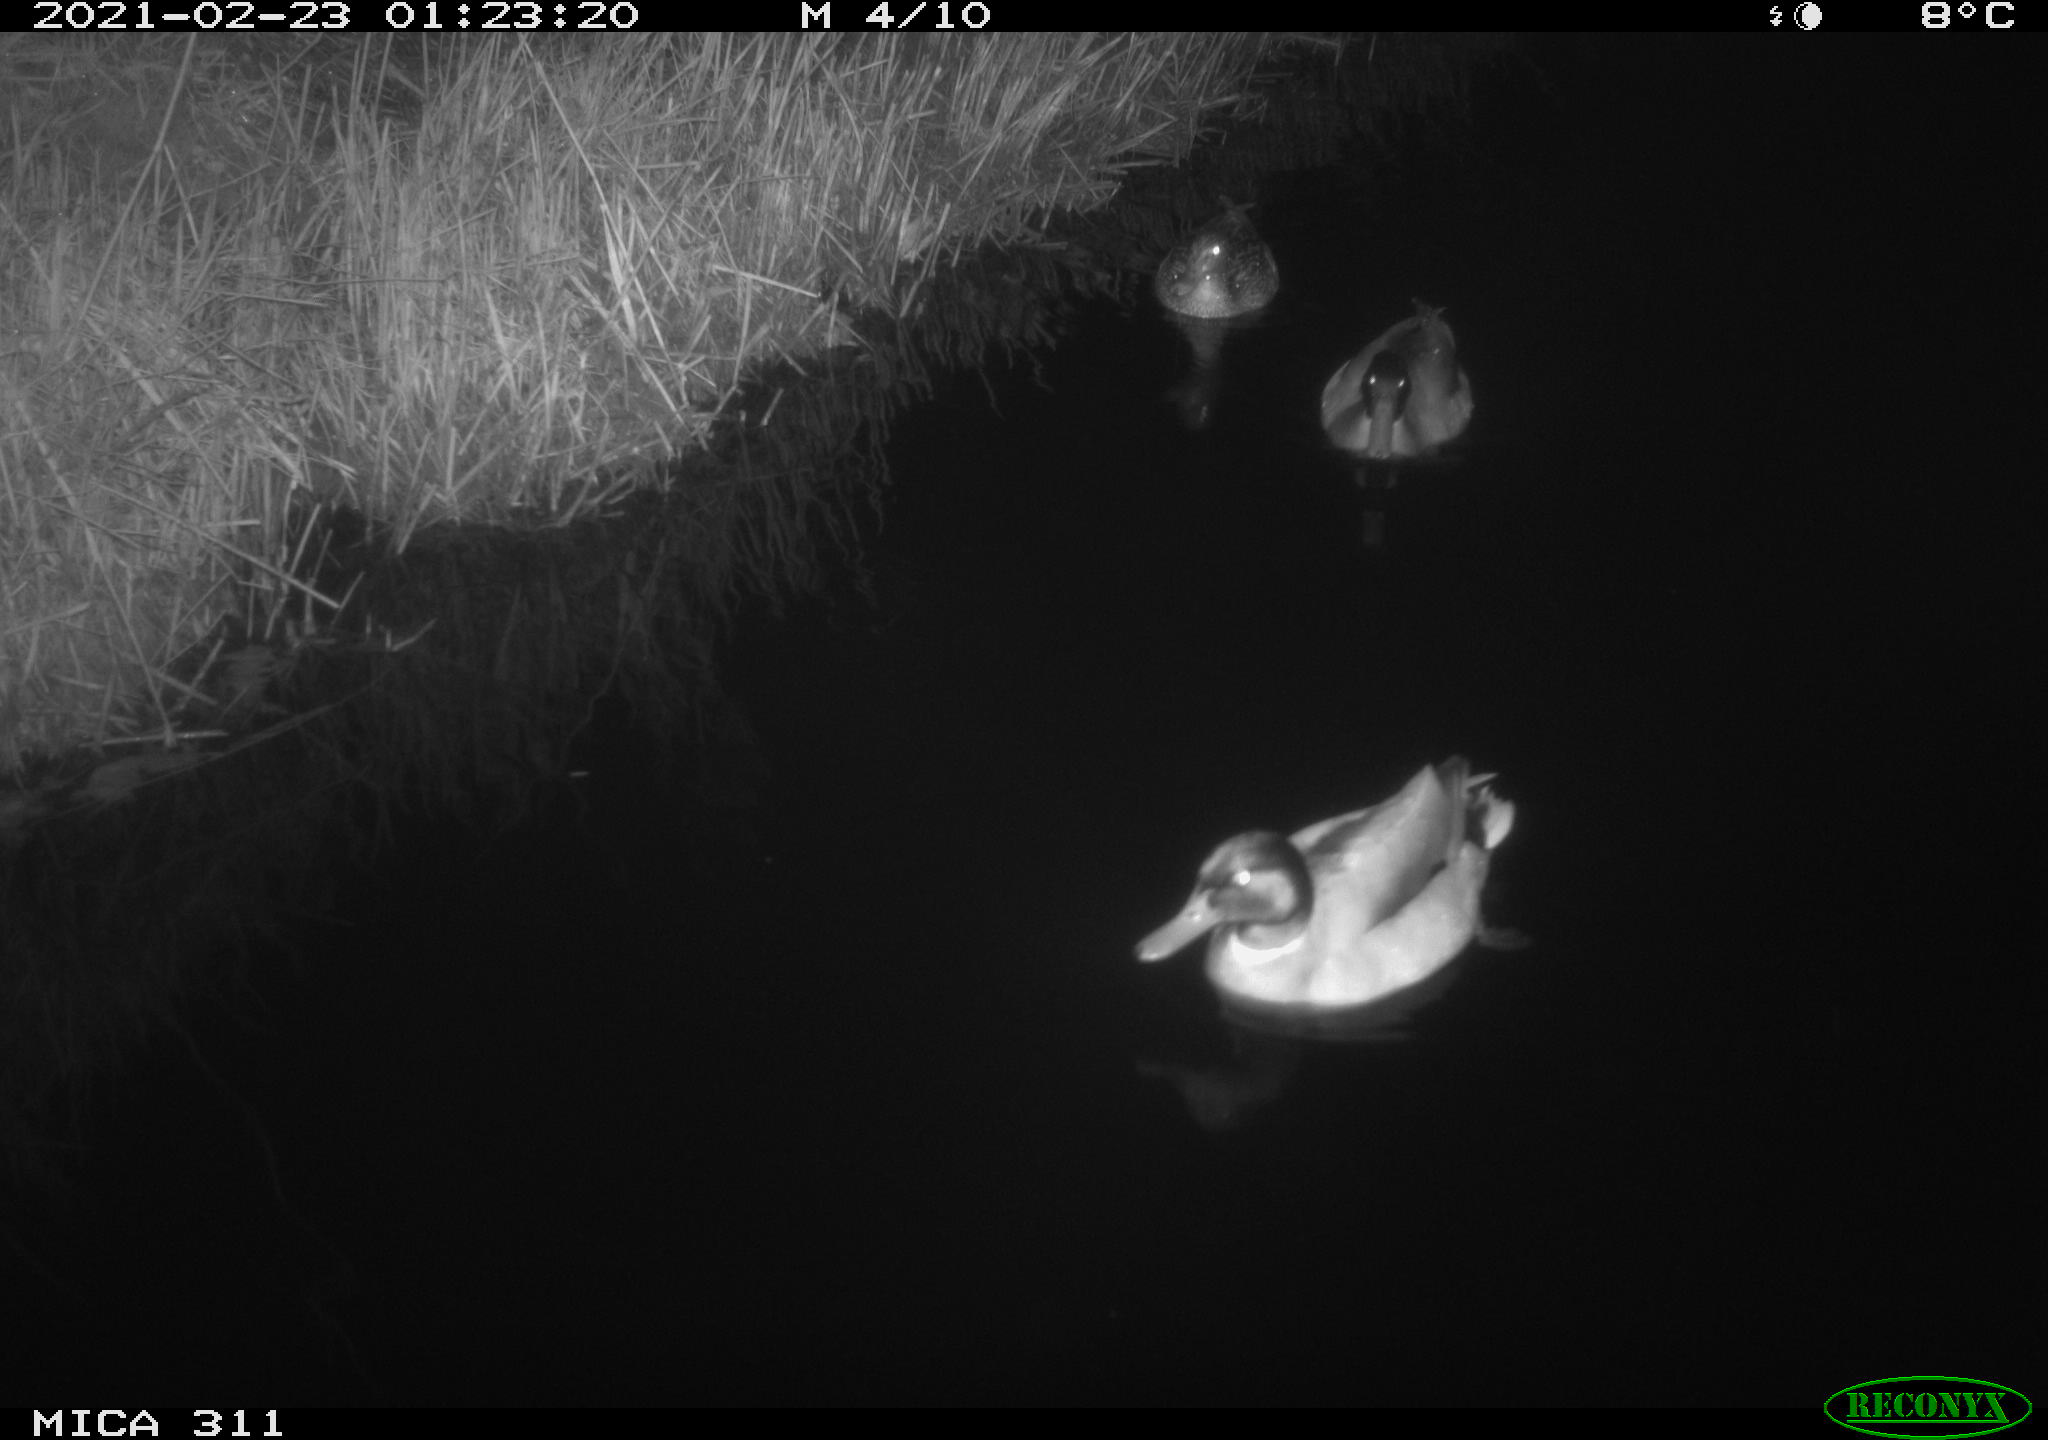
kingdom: Animalia
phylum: Chordata
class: Aves
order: Anseriformes
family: Anatidae
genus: Anas
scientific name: Anas
